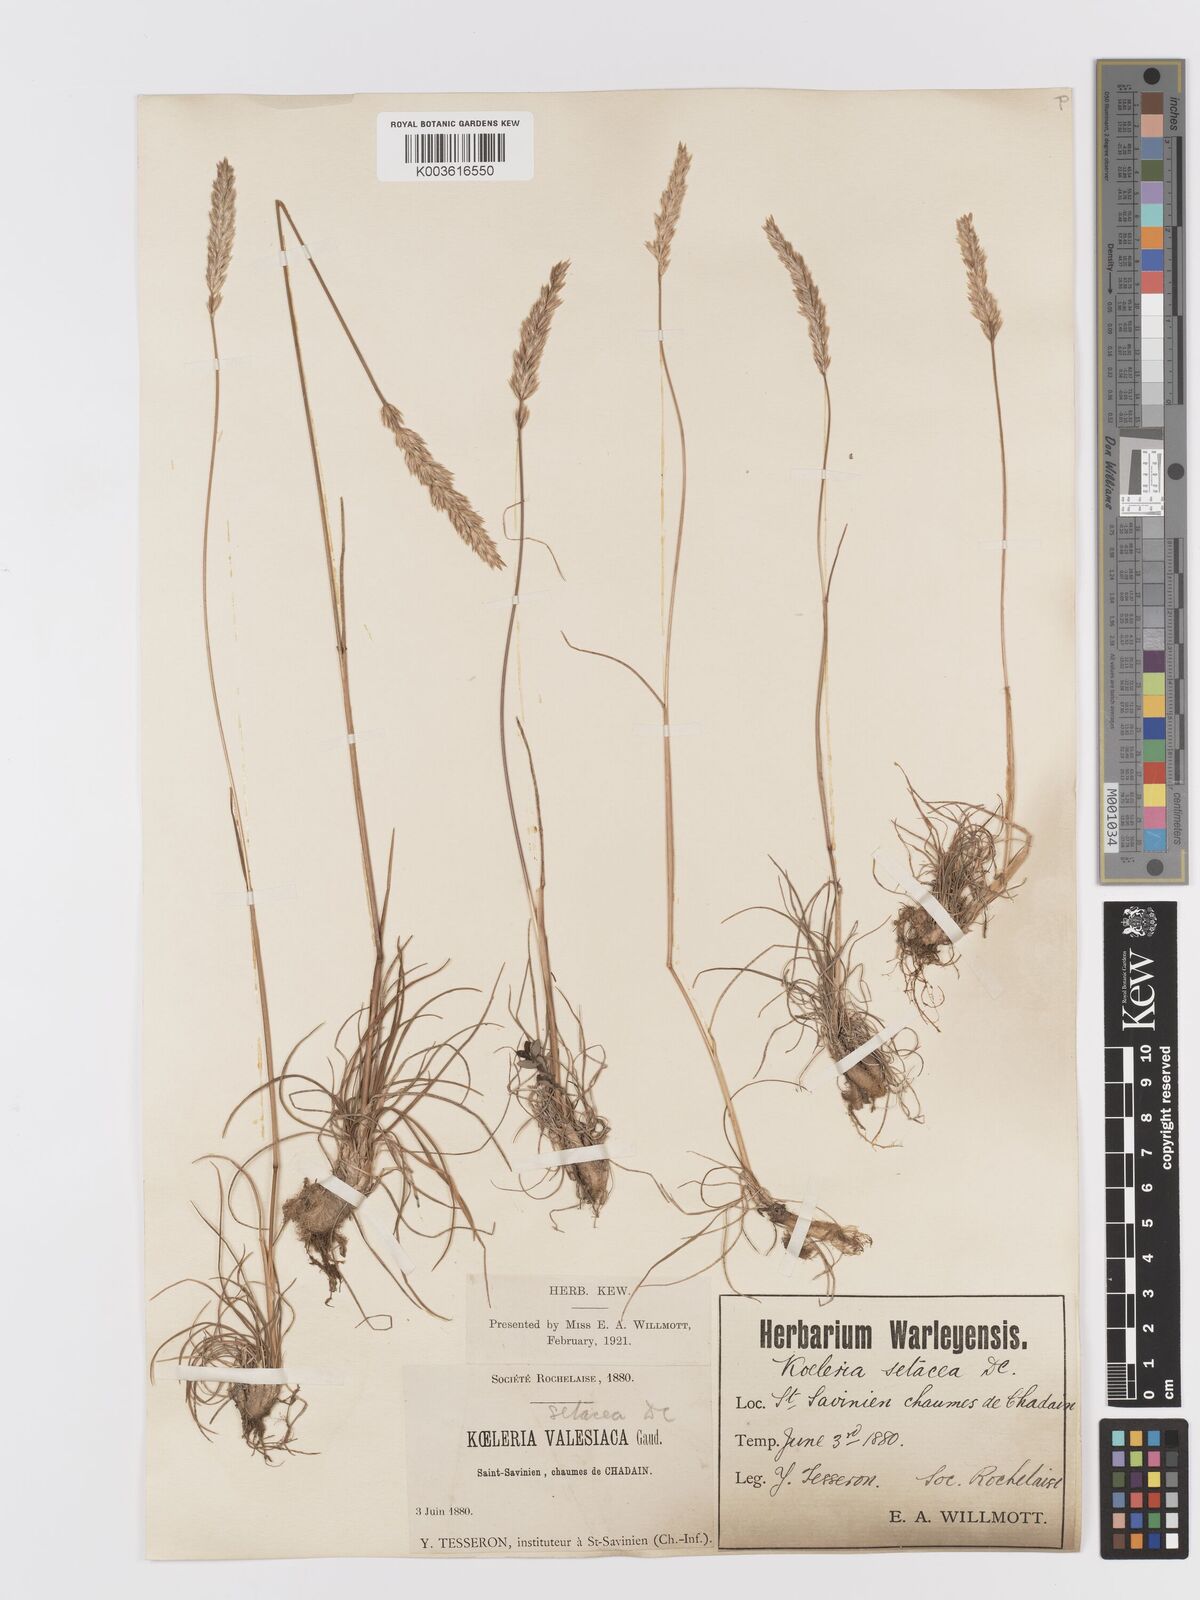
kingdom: Plantae
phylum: Tracheophyta
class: Liliopsida
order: Poales
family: Poaceae
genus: Koeleria
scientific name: Koeleria vallesiana
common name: Somerset hair-grass
